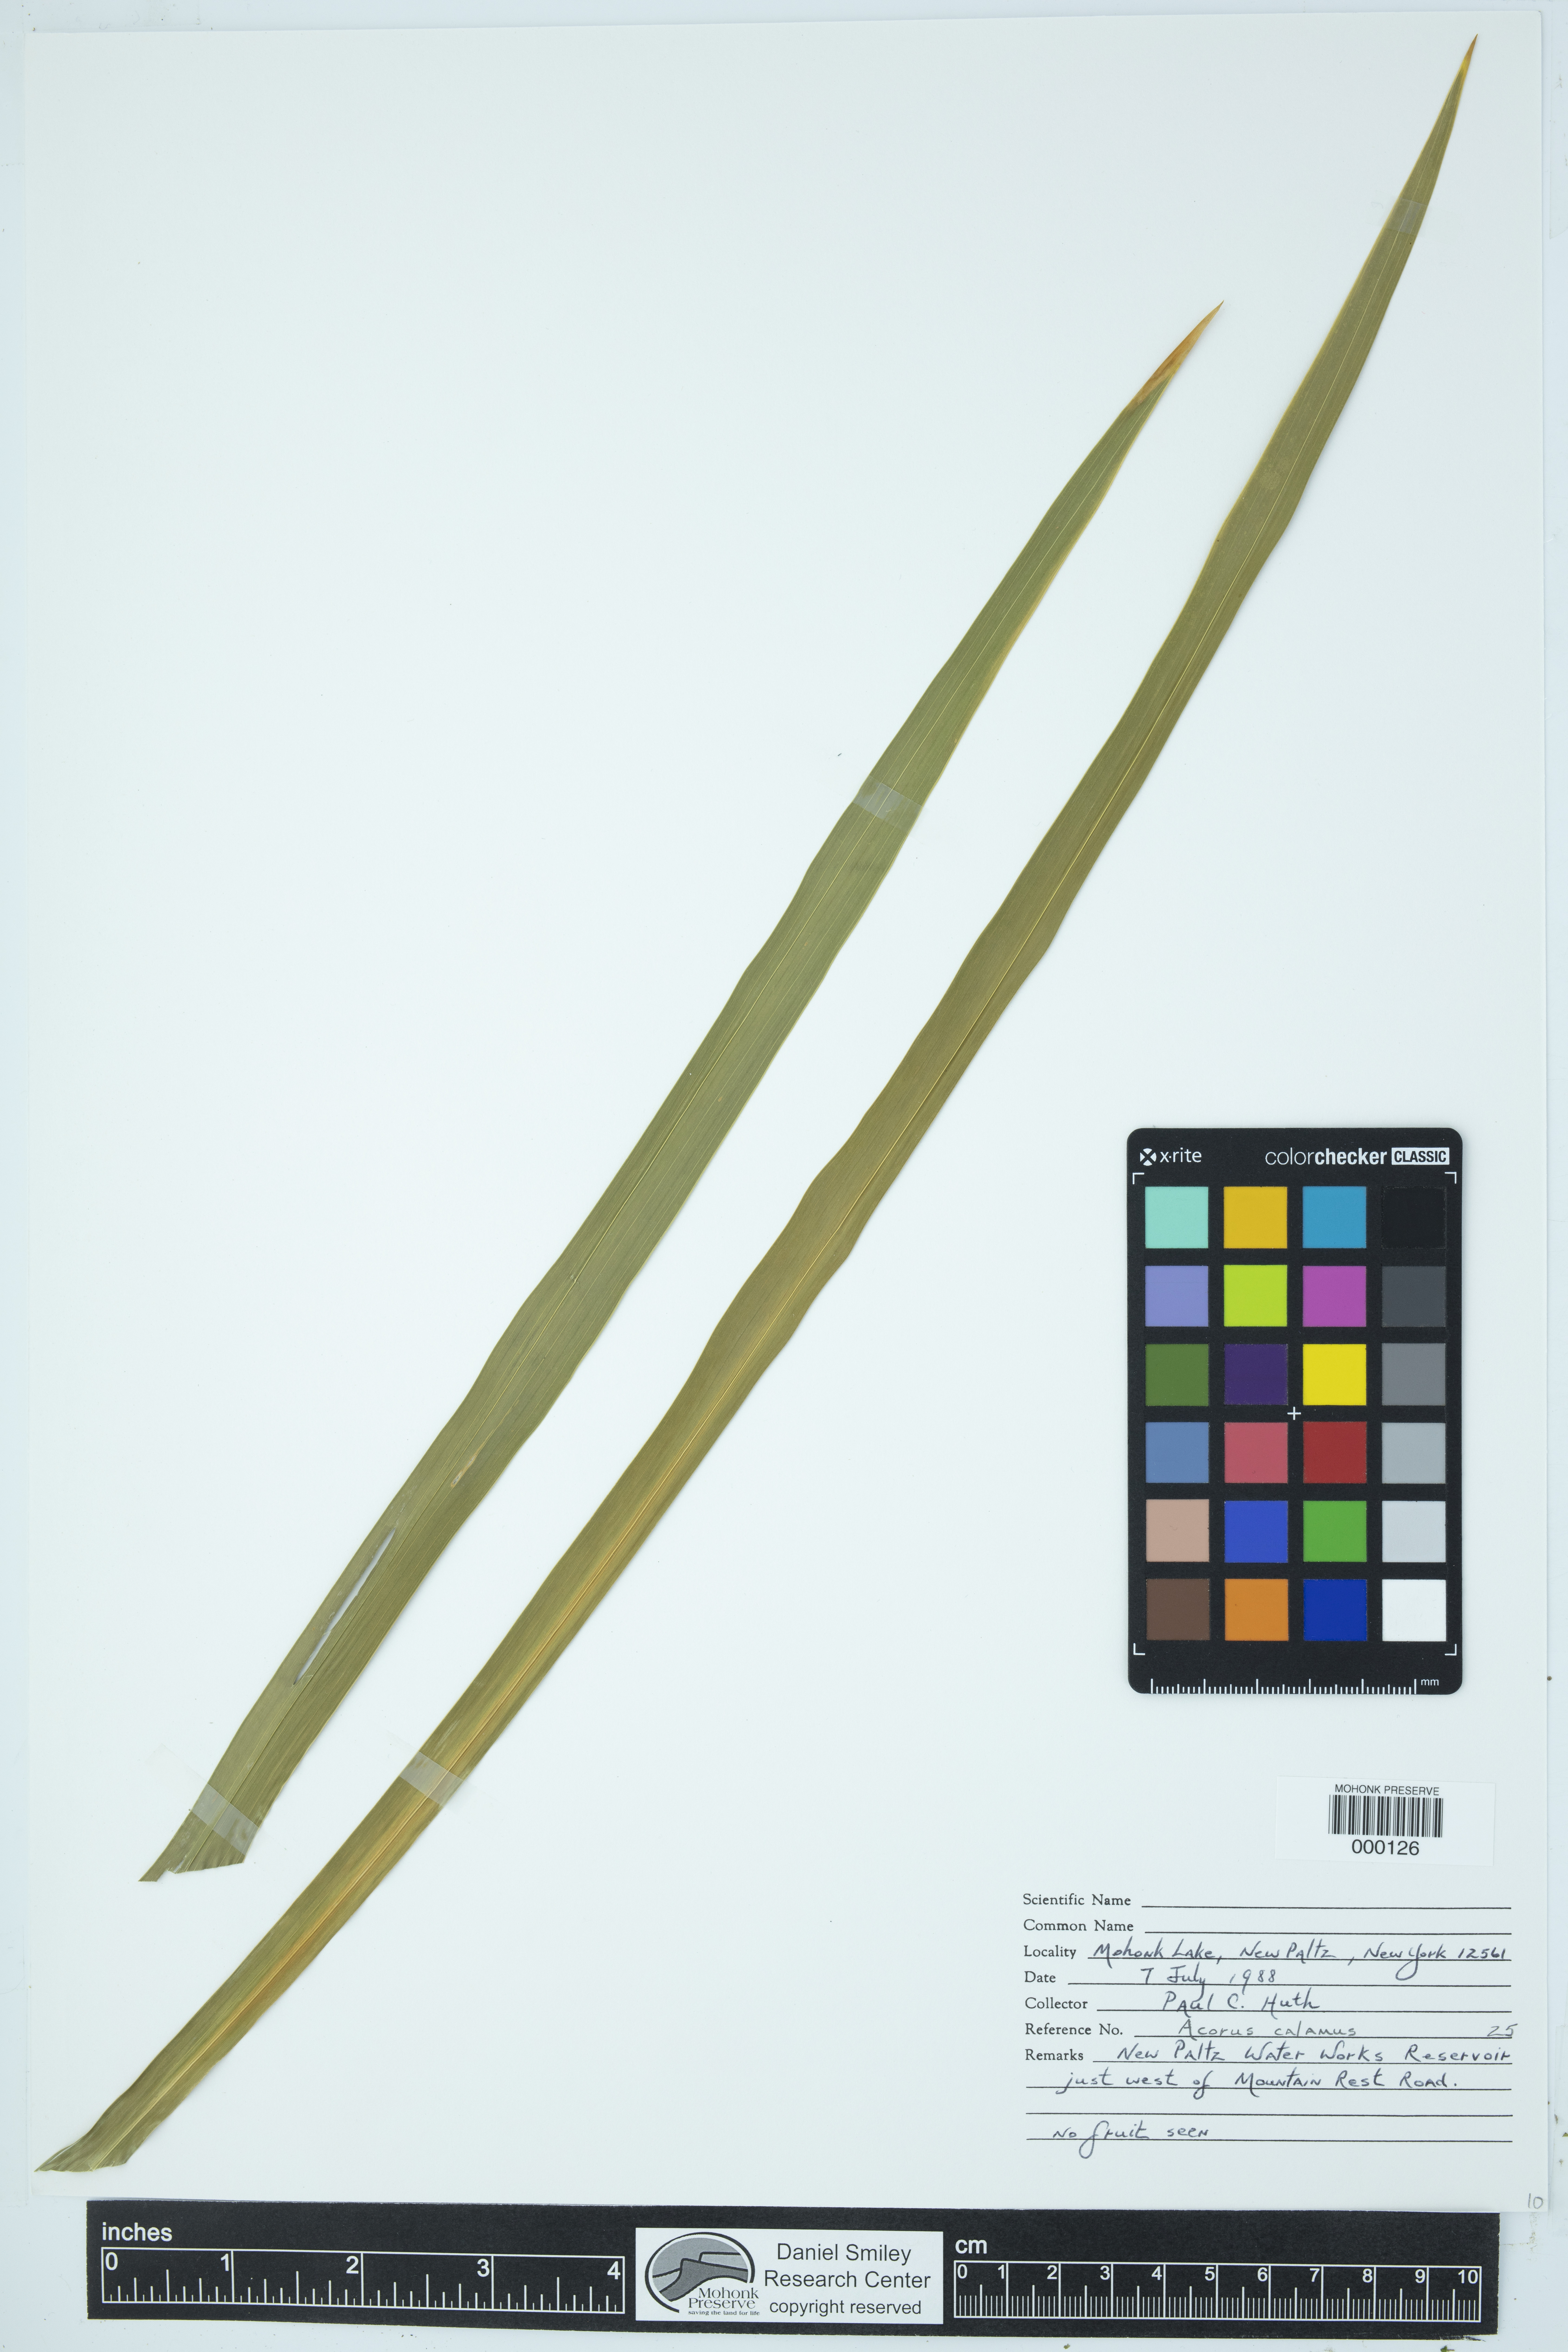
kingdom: Plantae
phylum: Tracheophyta
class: Liliopsida
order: Acorales
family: Acoraceae
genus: Acorus
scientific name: Acorus calamus
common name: Sweet-flag
